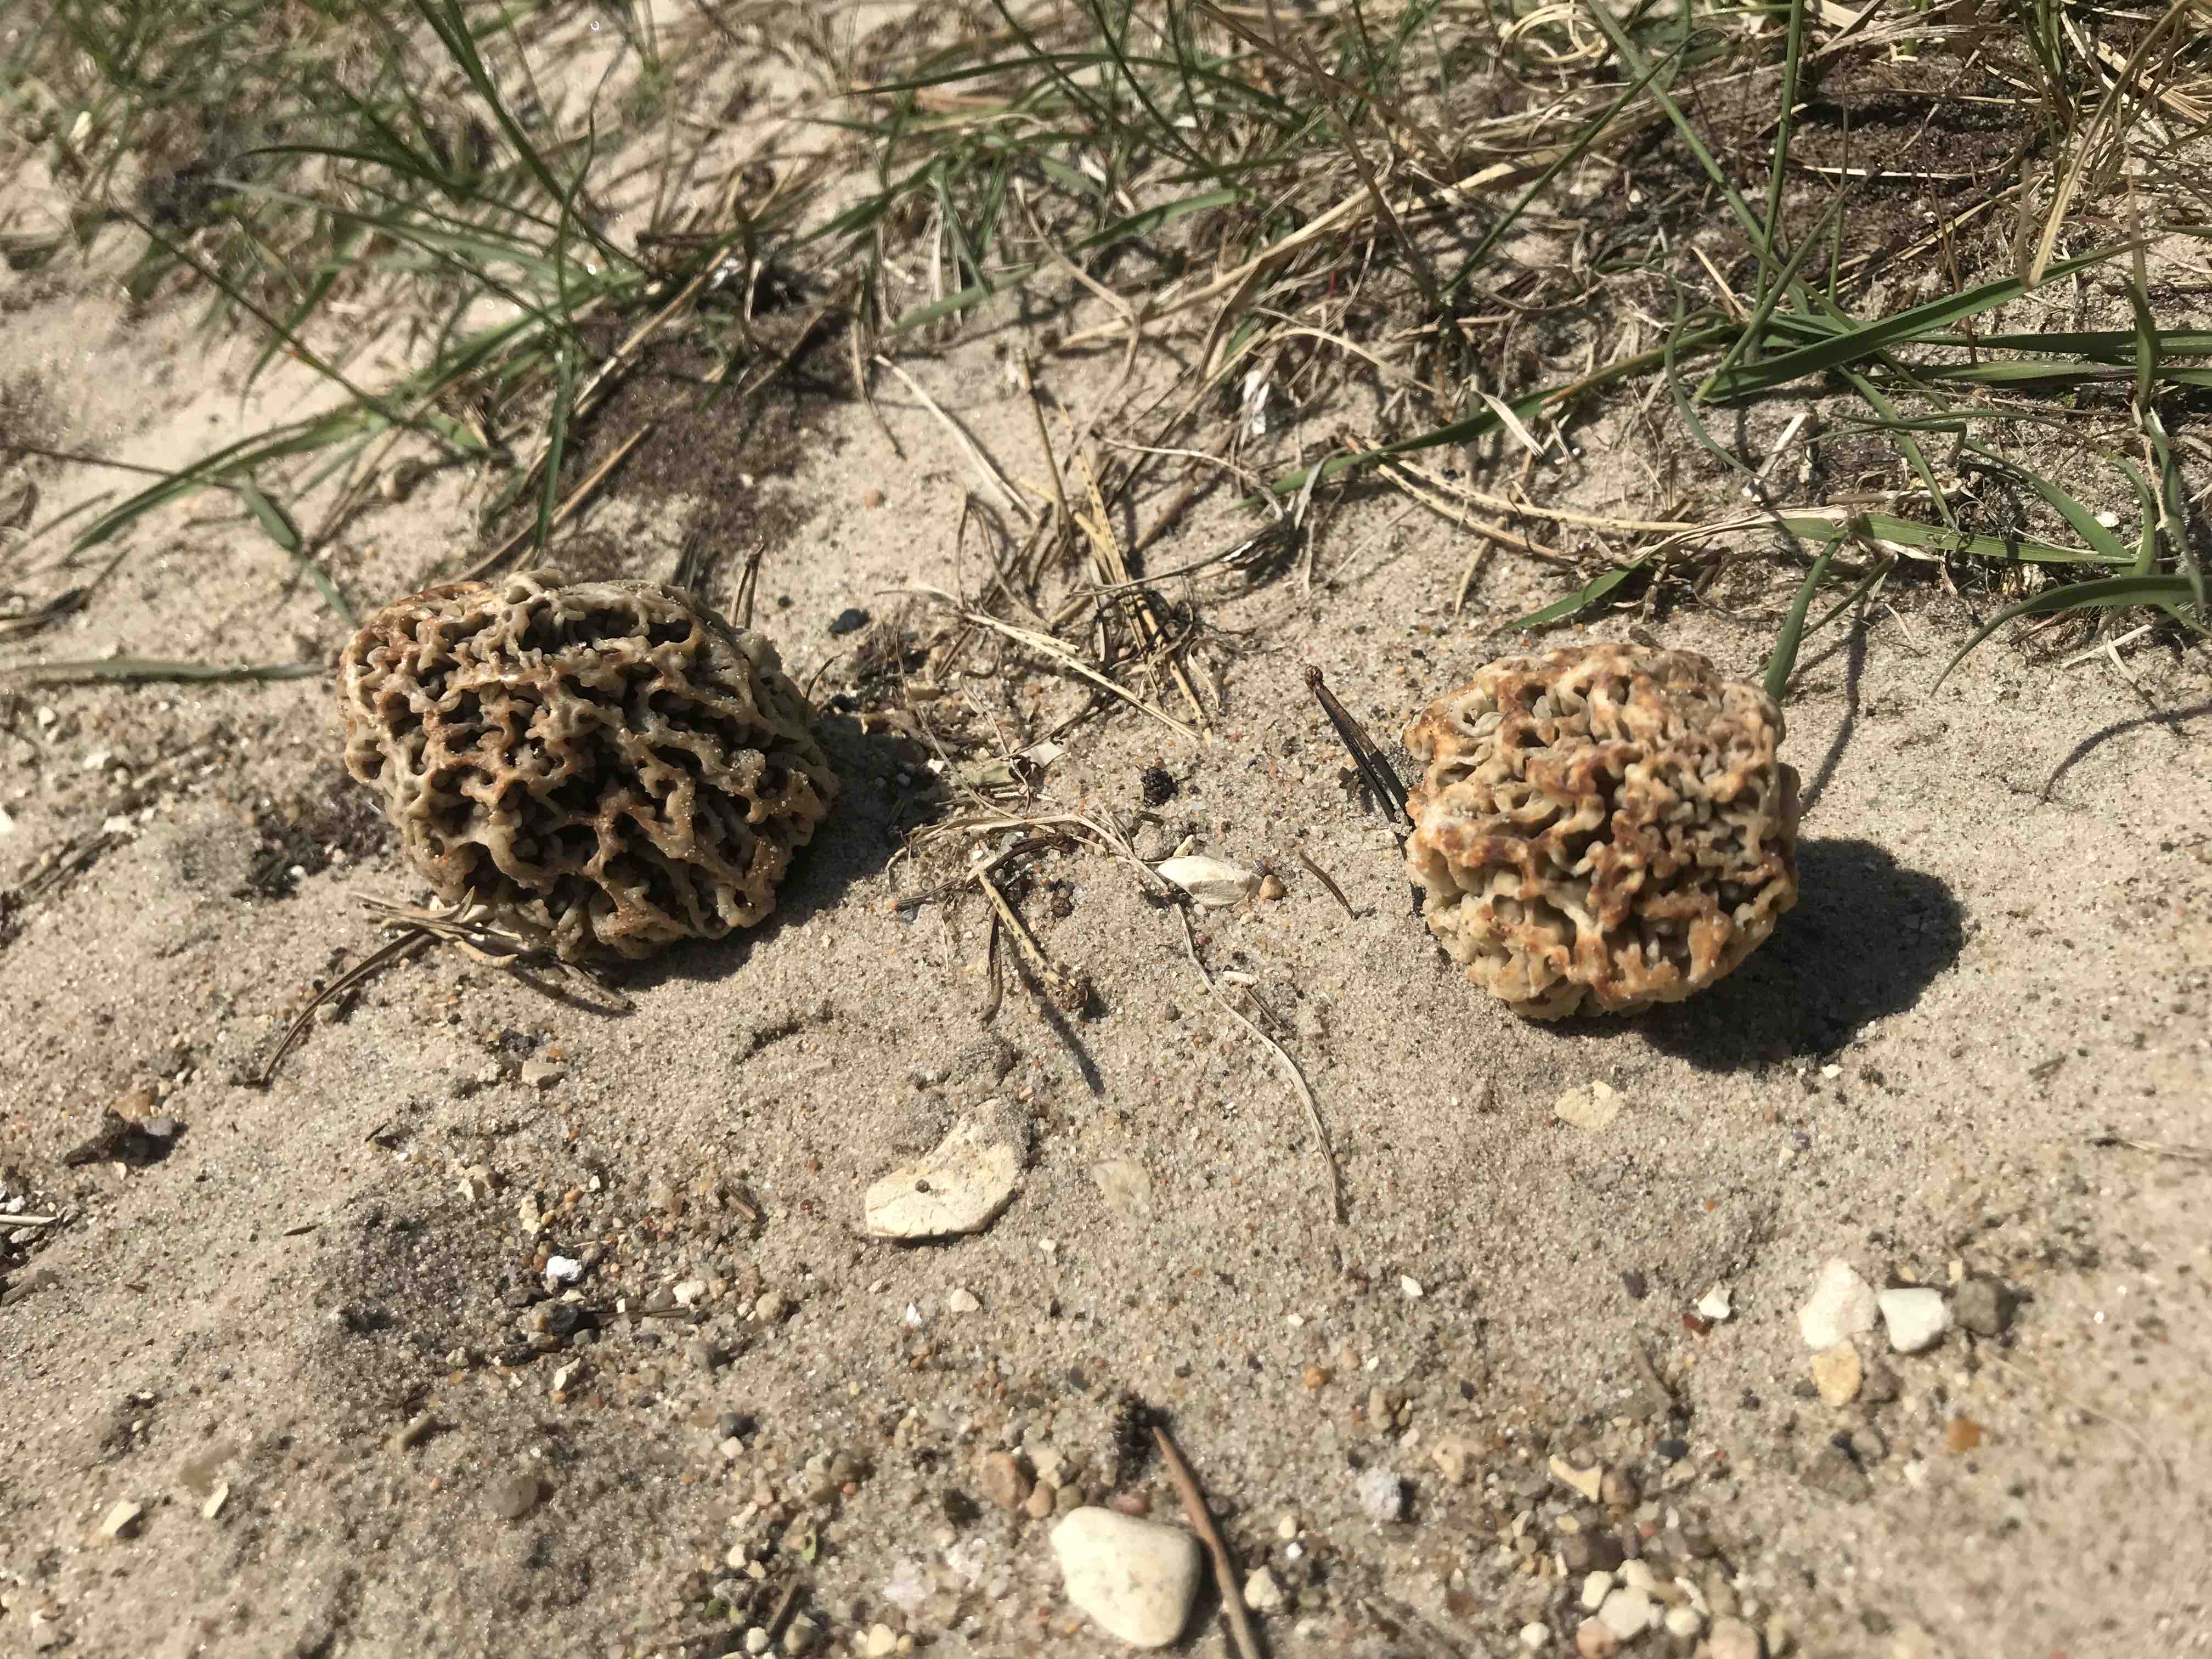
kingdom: Fungi
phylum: Ascomycota
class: Pezizomycetes
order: Pezizales
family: Morchellaceae
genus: Morchella
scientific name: Morchella esculenta
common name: almindelig morkel
